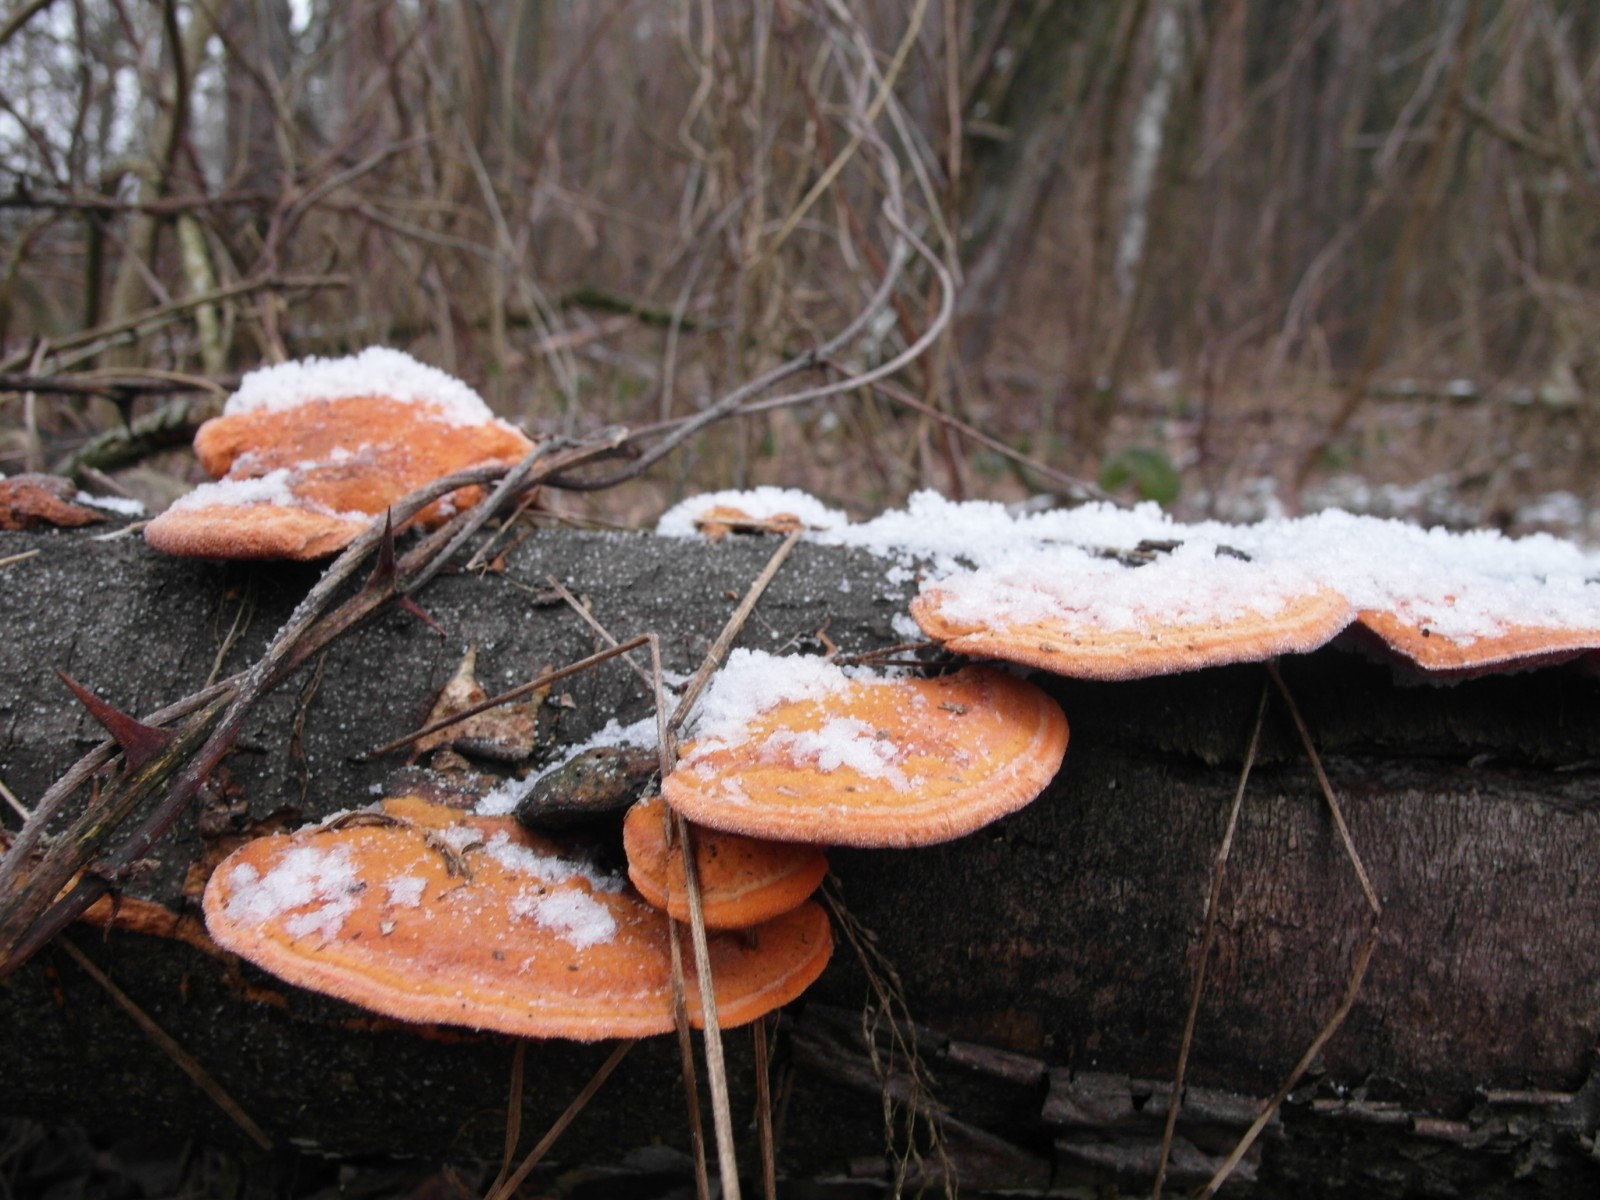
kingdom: Fungi
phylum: Basidiomycota
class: Agaricomycetes
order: Polyporales
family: Polyporaceae
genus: Trametes
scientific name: Trametes cinnabarina
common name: cinnoberporesvamp
